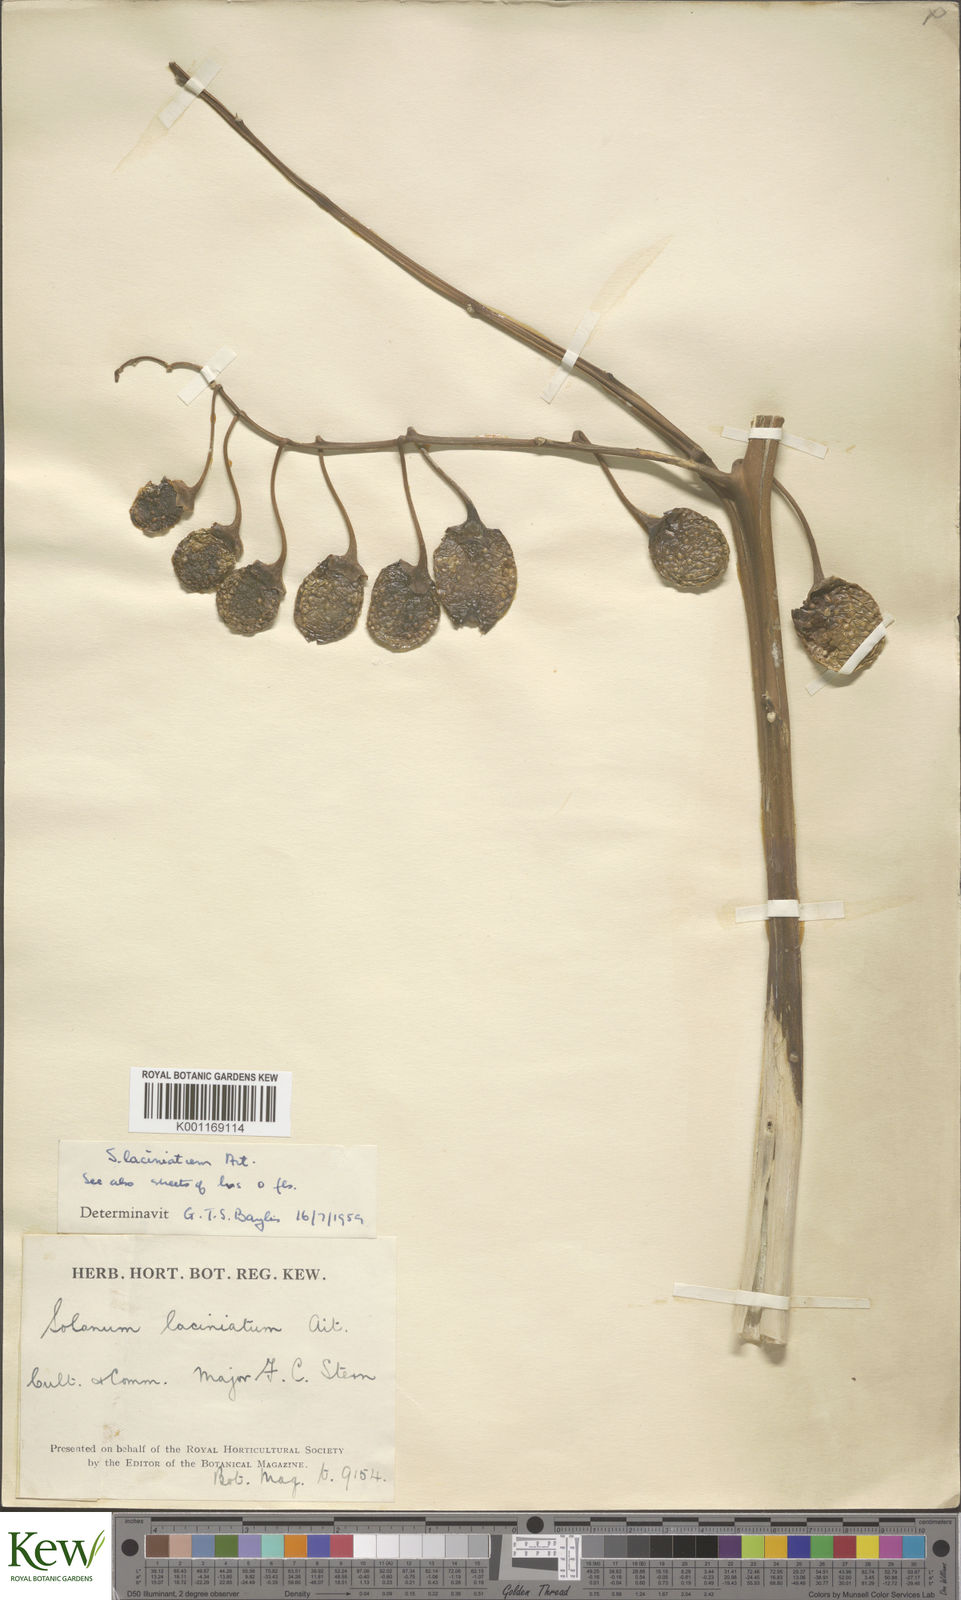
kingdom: Plantae
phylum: Tracheophyta
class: Magnoliopsida
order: Solanales
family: Solanaceae
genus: Solanum
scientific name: Solanum laciniatum
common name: Kangaroo-apple
